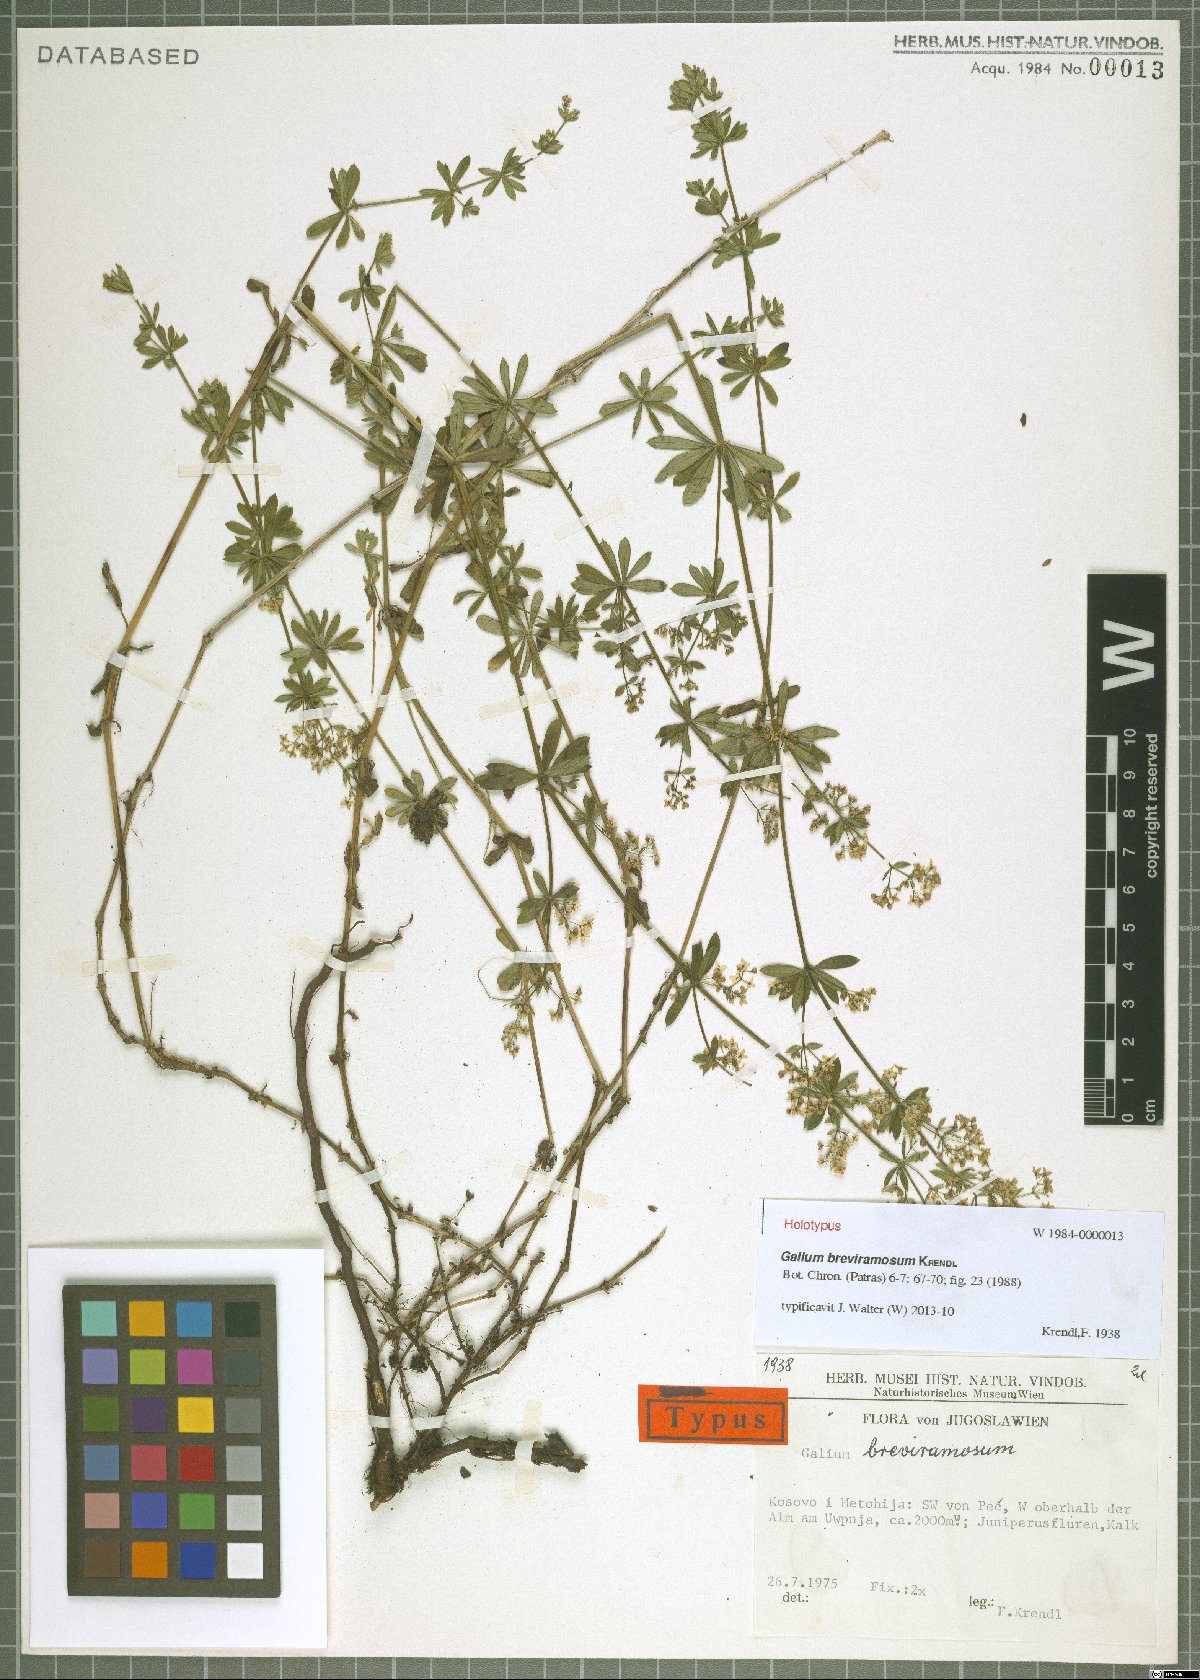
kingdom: Plantae
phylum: Tracheophyta
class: Magnoliopsida
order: Gentianales
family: Rubiaceae
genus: Galium
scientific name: Galium breviramosum
